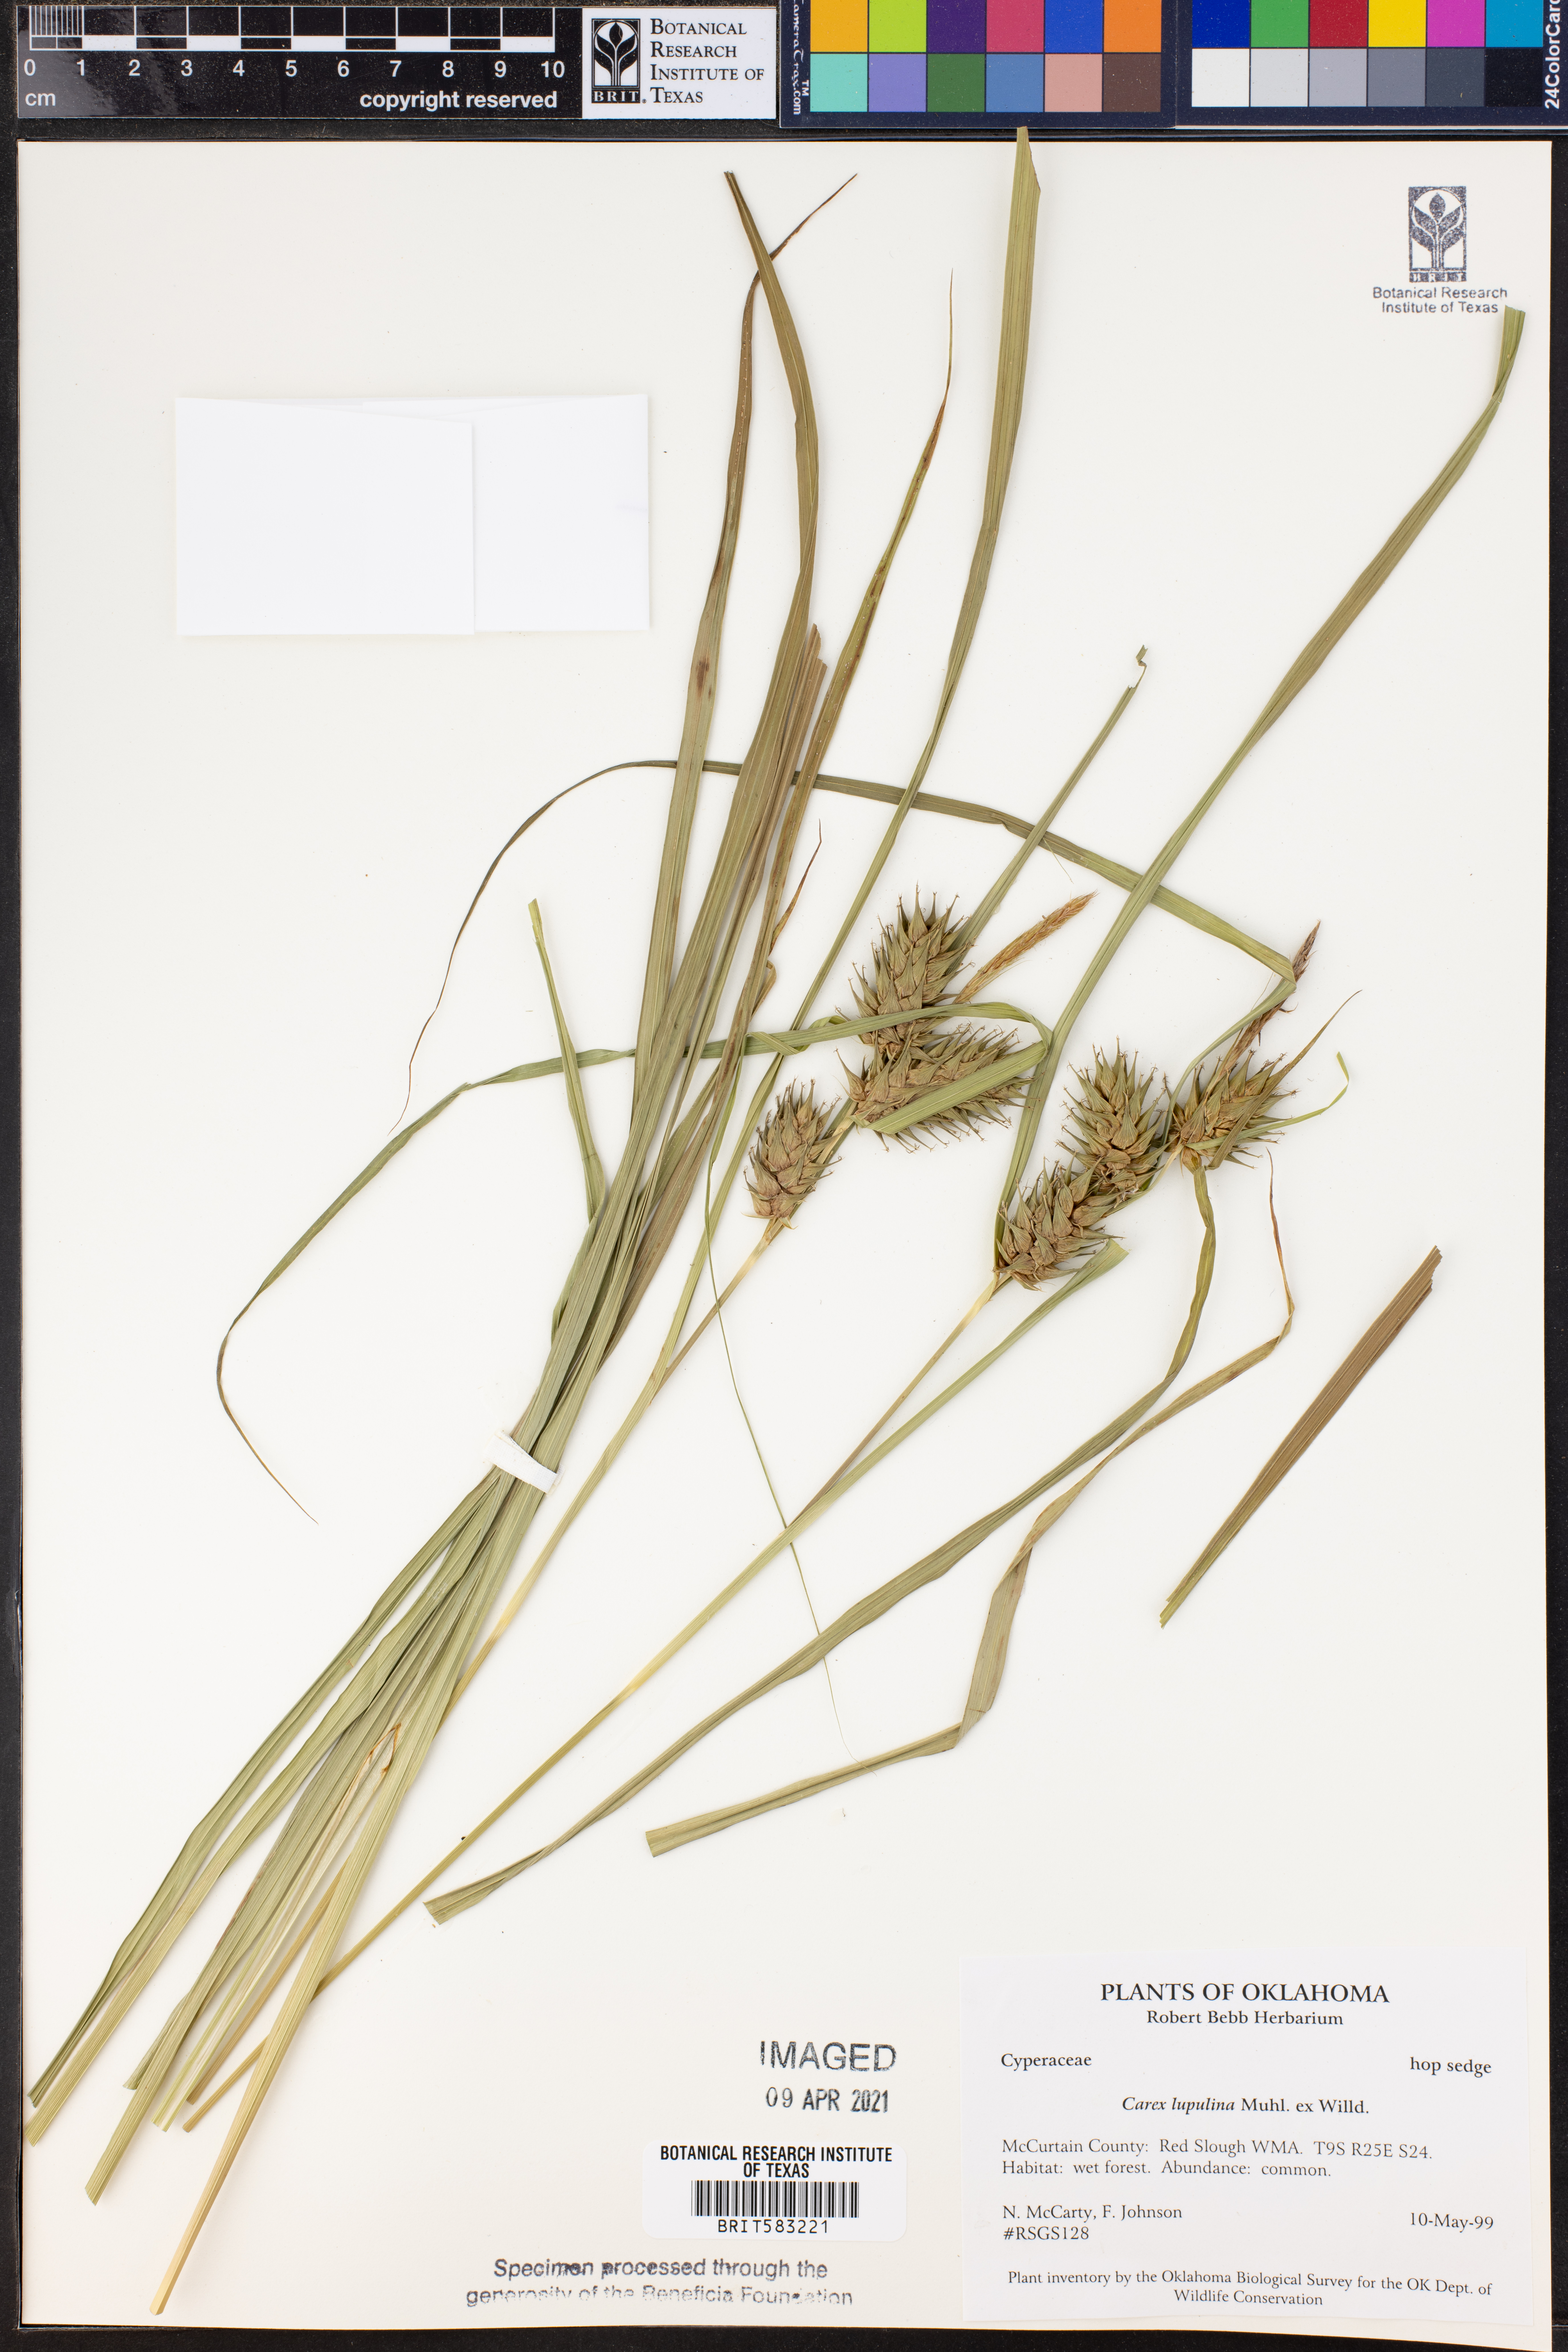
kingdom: Plantae
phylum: Tracheophyta
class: Liliopsida
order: Poales
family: Cyperaceae
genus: Carex
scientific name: Carex lupulina
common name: Hop sedge
